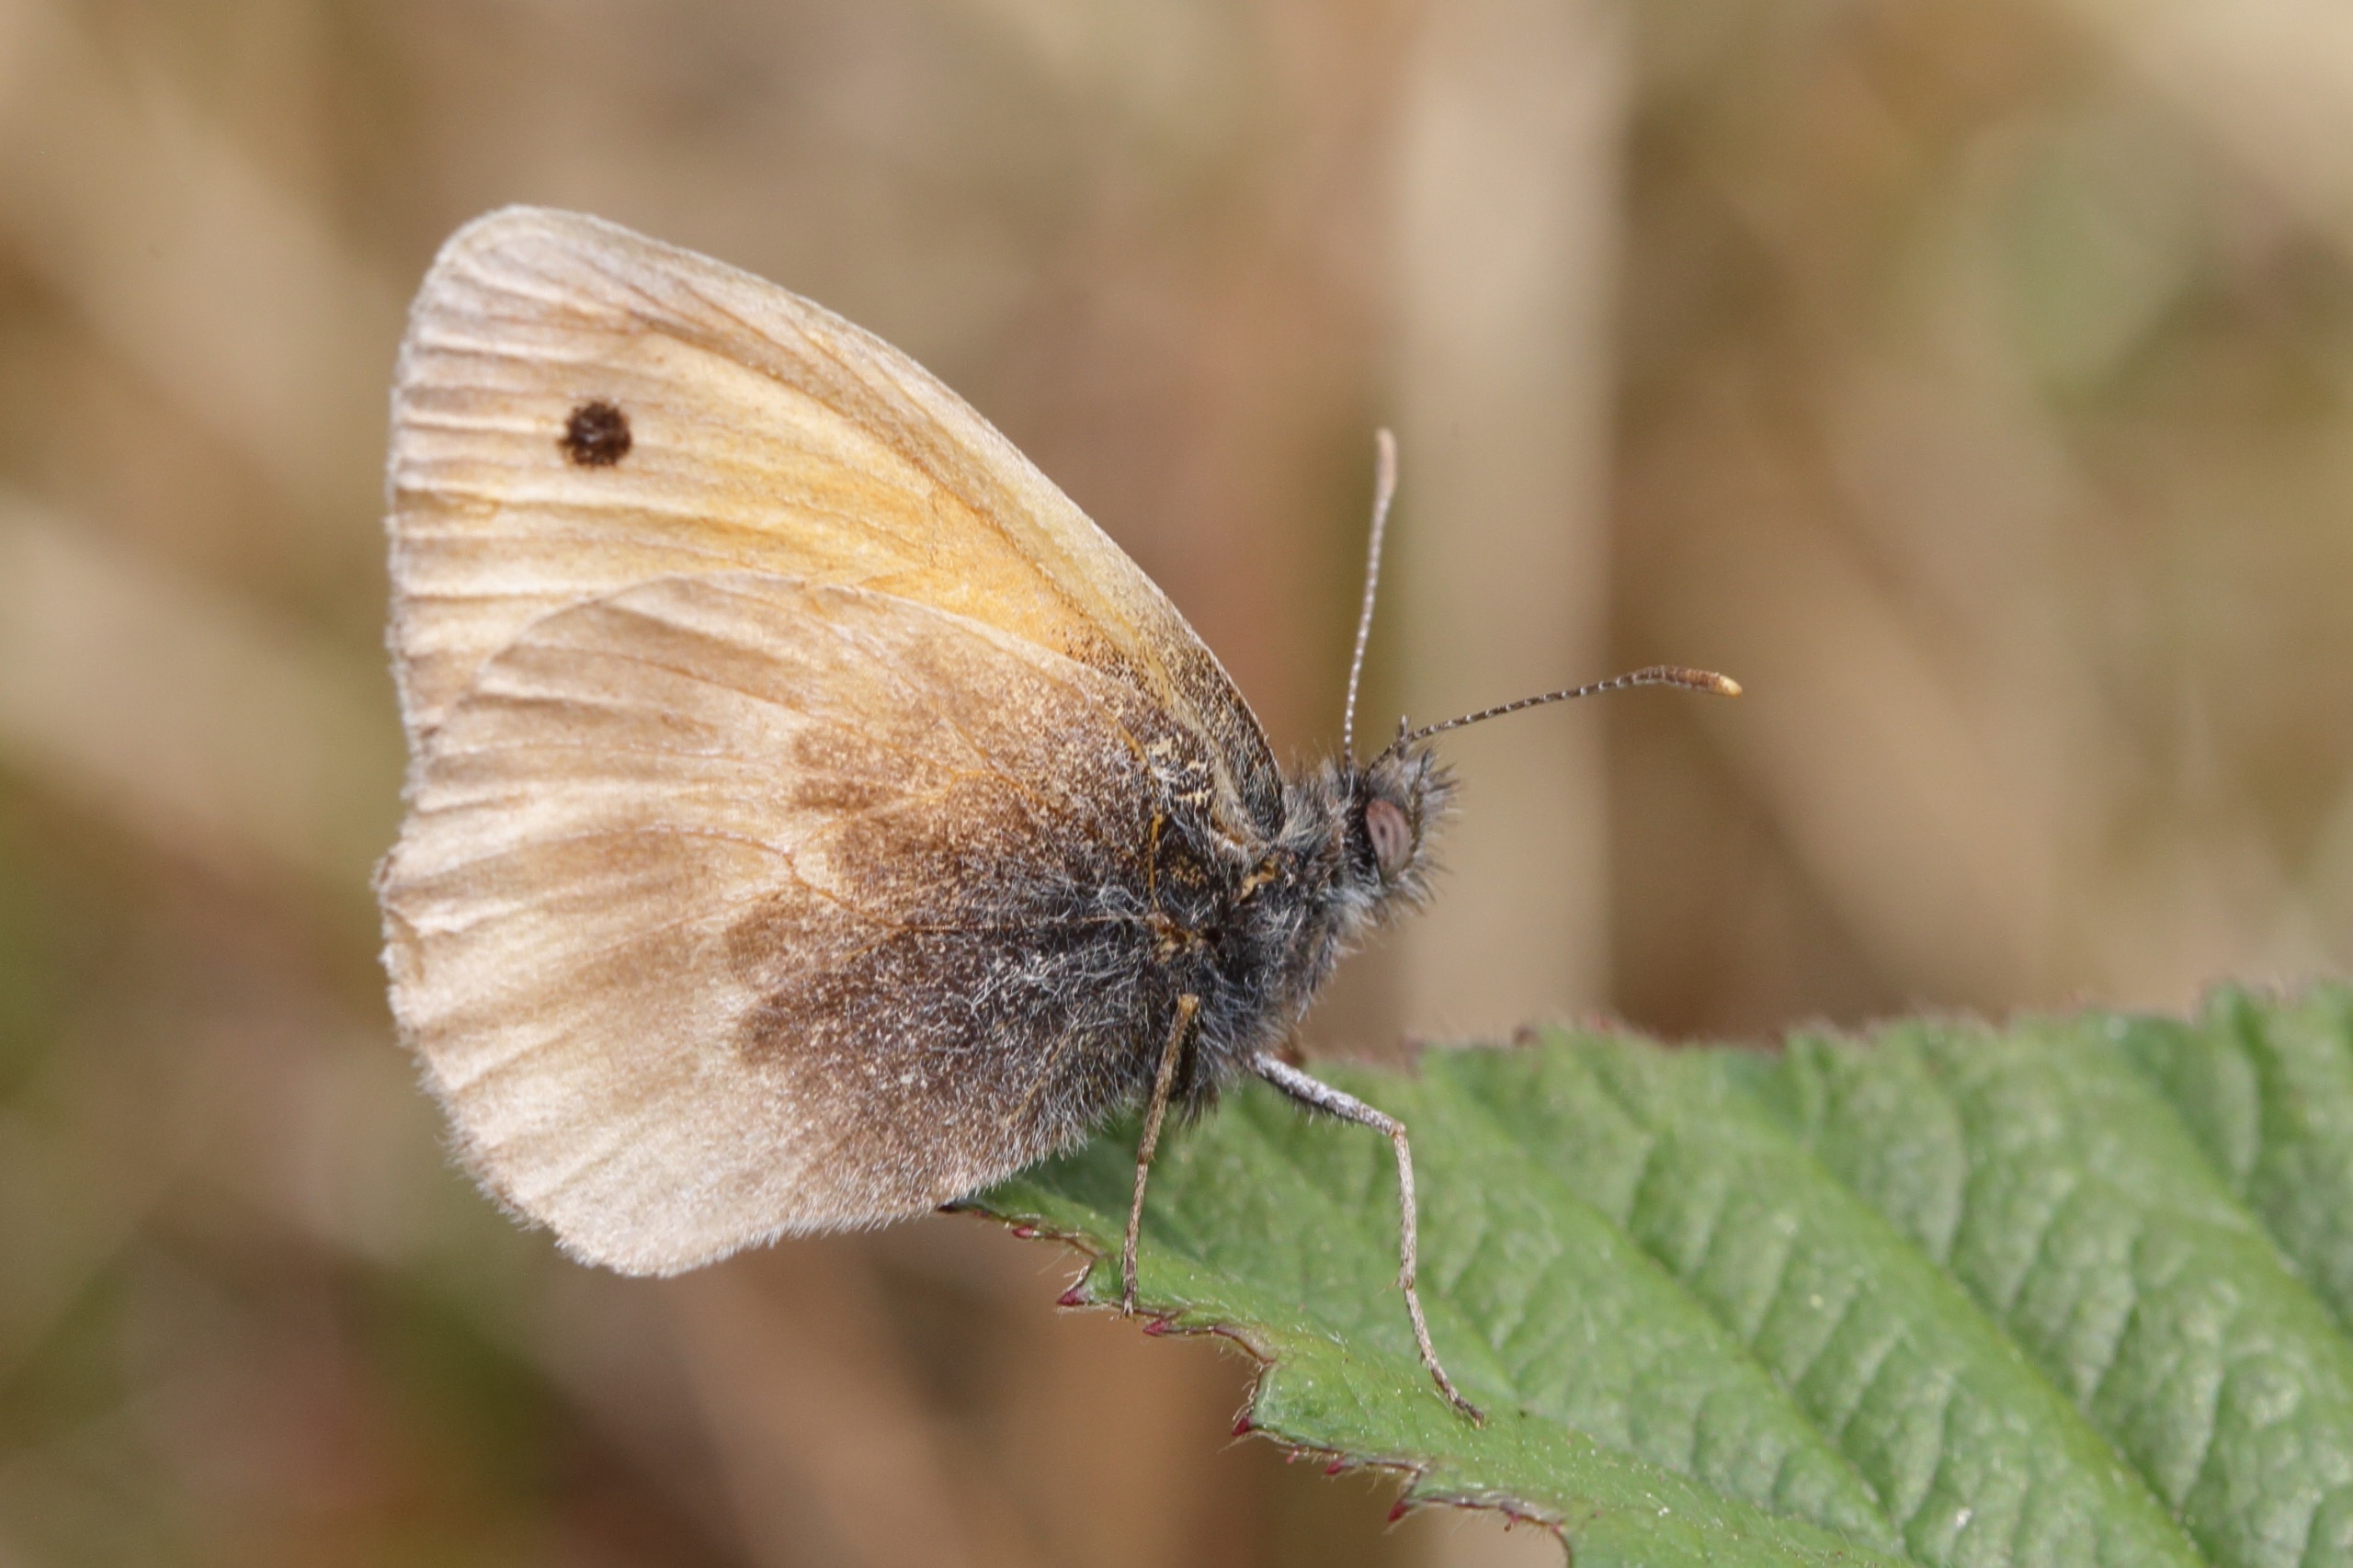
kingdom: Animalia
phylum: Arthropoda
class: Insecta
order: Lepidoptera
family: Nymphalidae
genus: Coenonympha
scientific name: Coenonympha pamphilus
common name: Okkergul randøje
